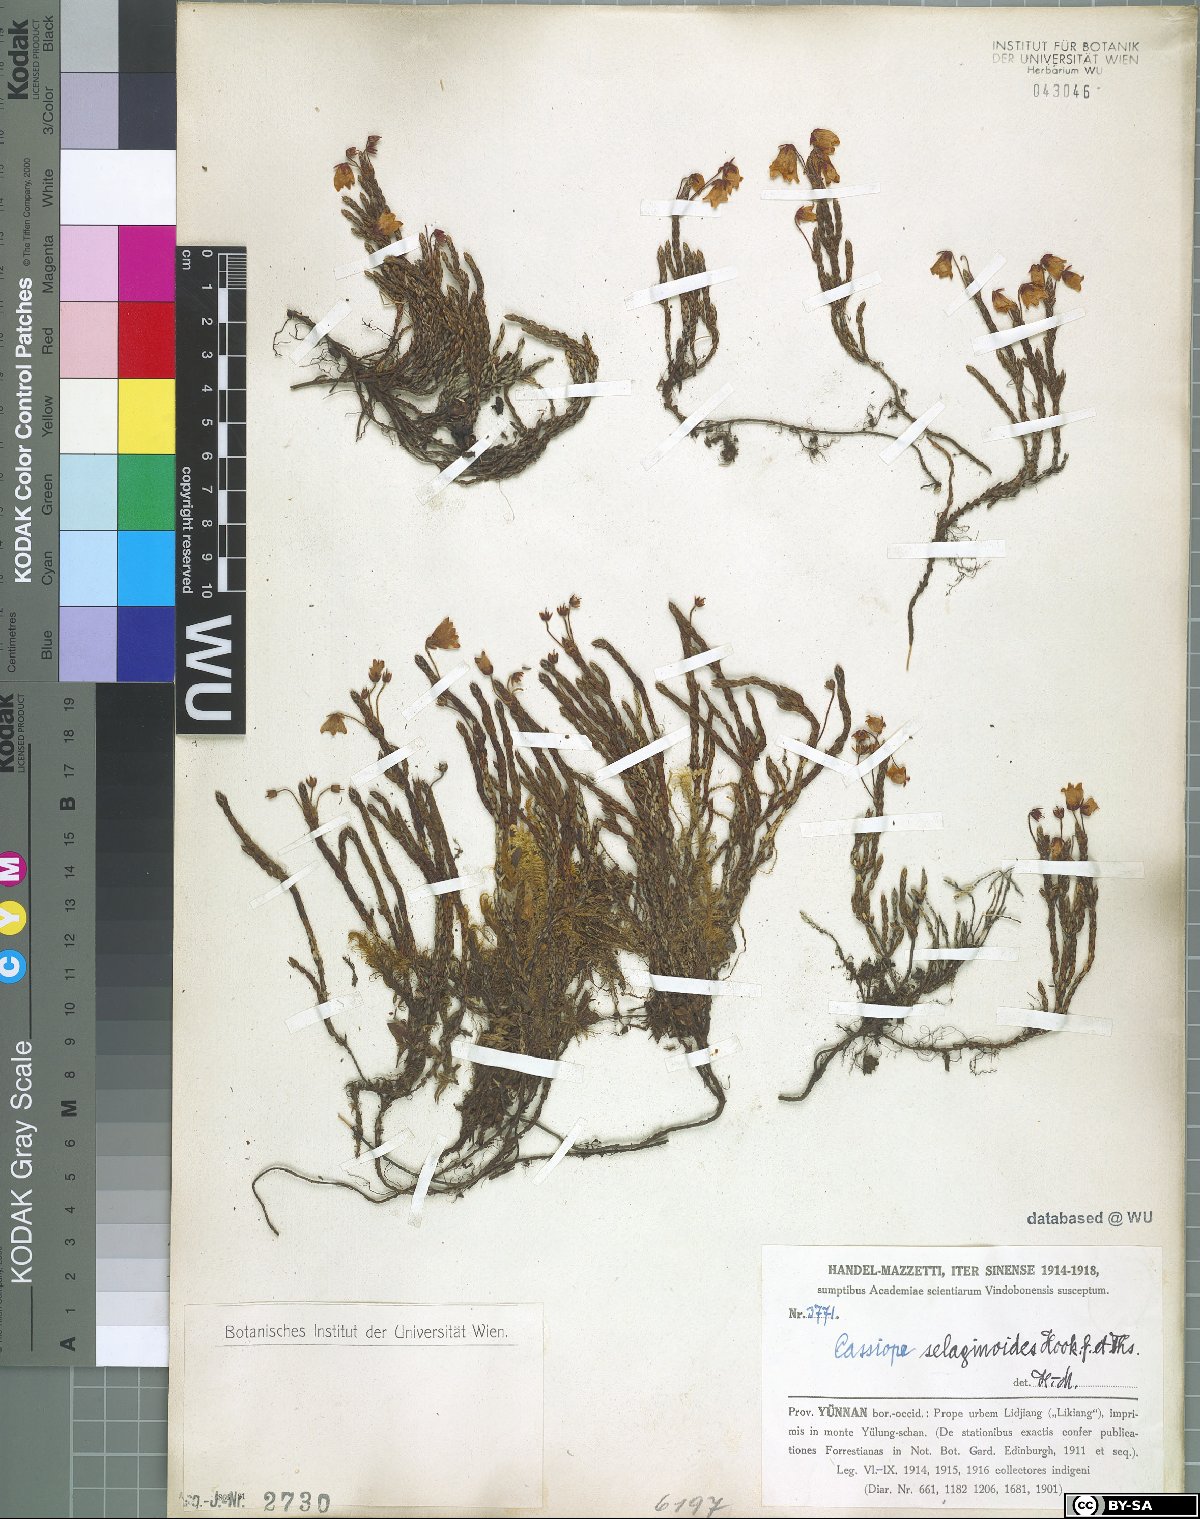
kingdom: Plantae
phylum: Tracheophyta
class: Magnoliopsida
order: Ericales
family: Ericaceae
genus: Cassiope
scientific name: Cassiope selaginoides
